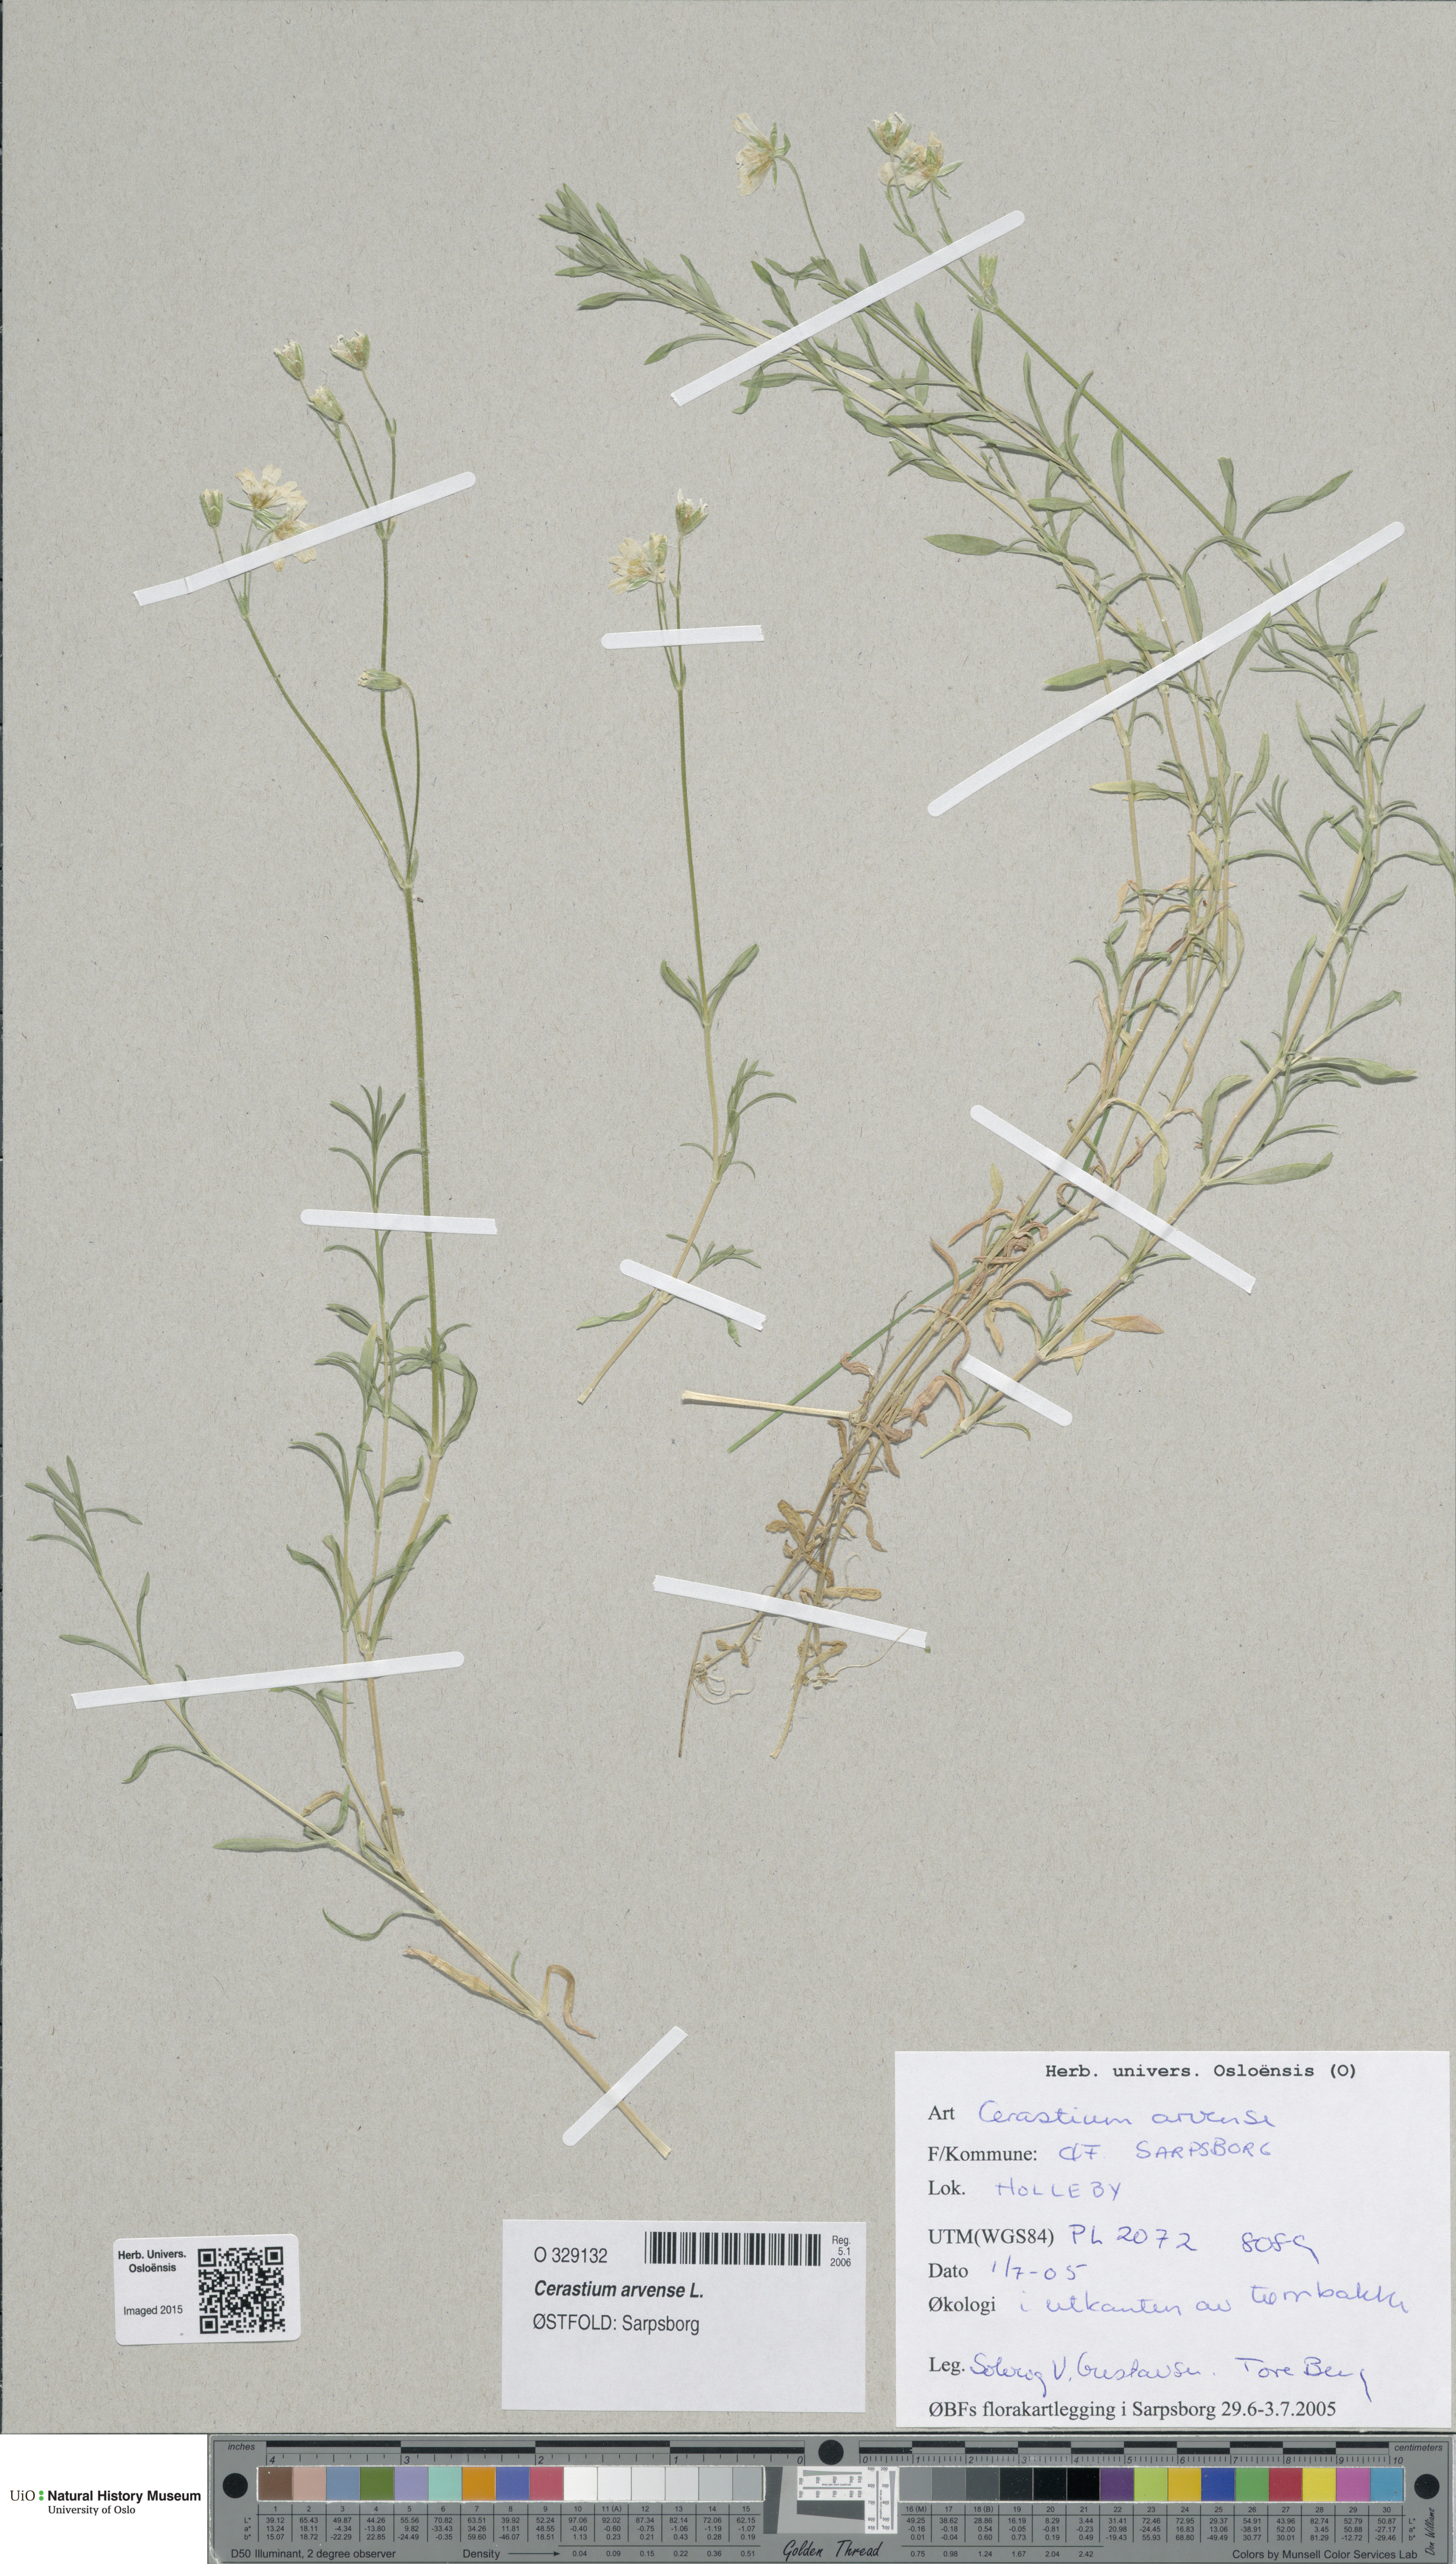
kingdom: Plantae
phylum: Tracheophyta
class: Magnoliopsida
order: Caryophyllales
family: Caryophyllaceae
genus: Cerastium
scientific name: Cerastium arvense
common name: Field mouse-ear
